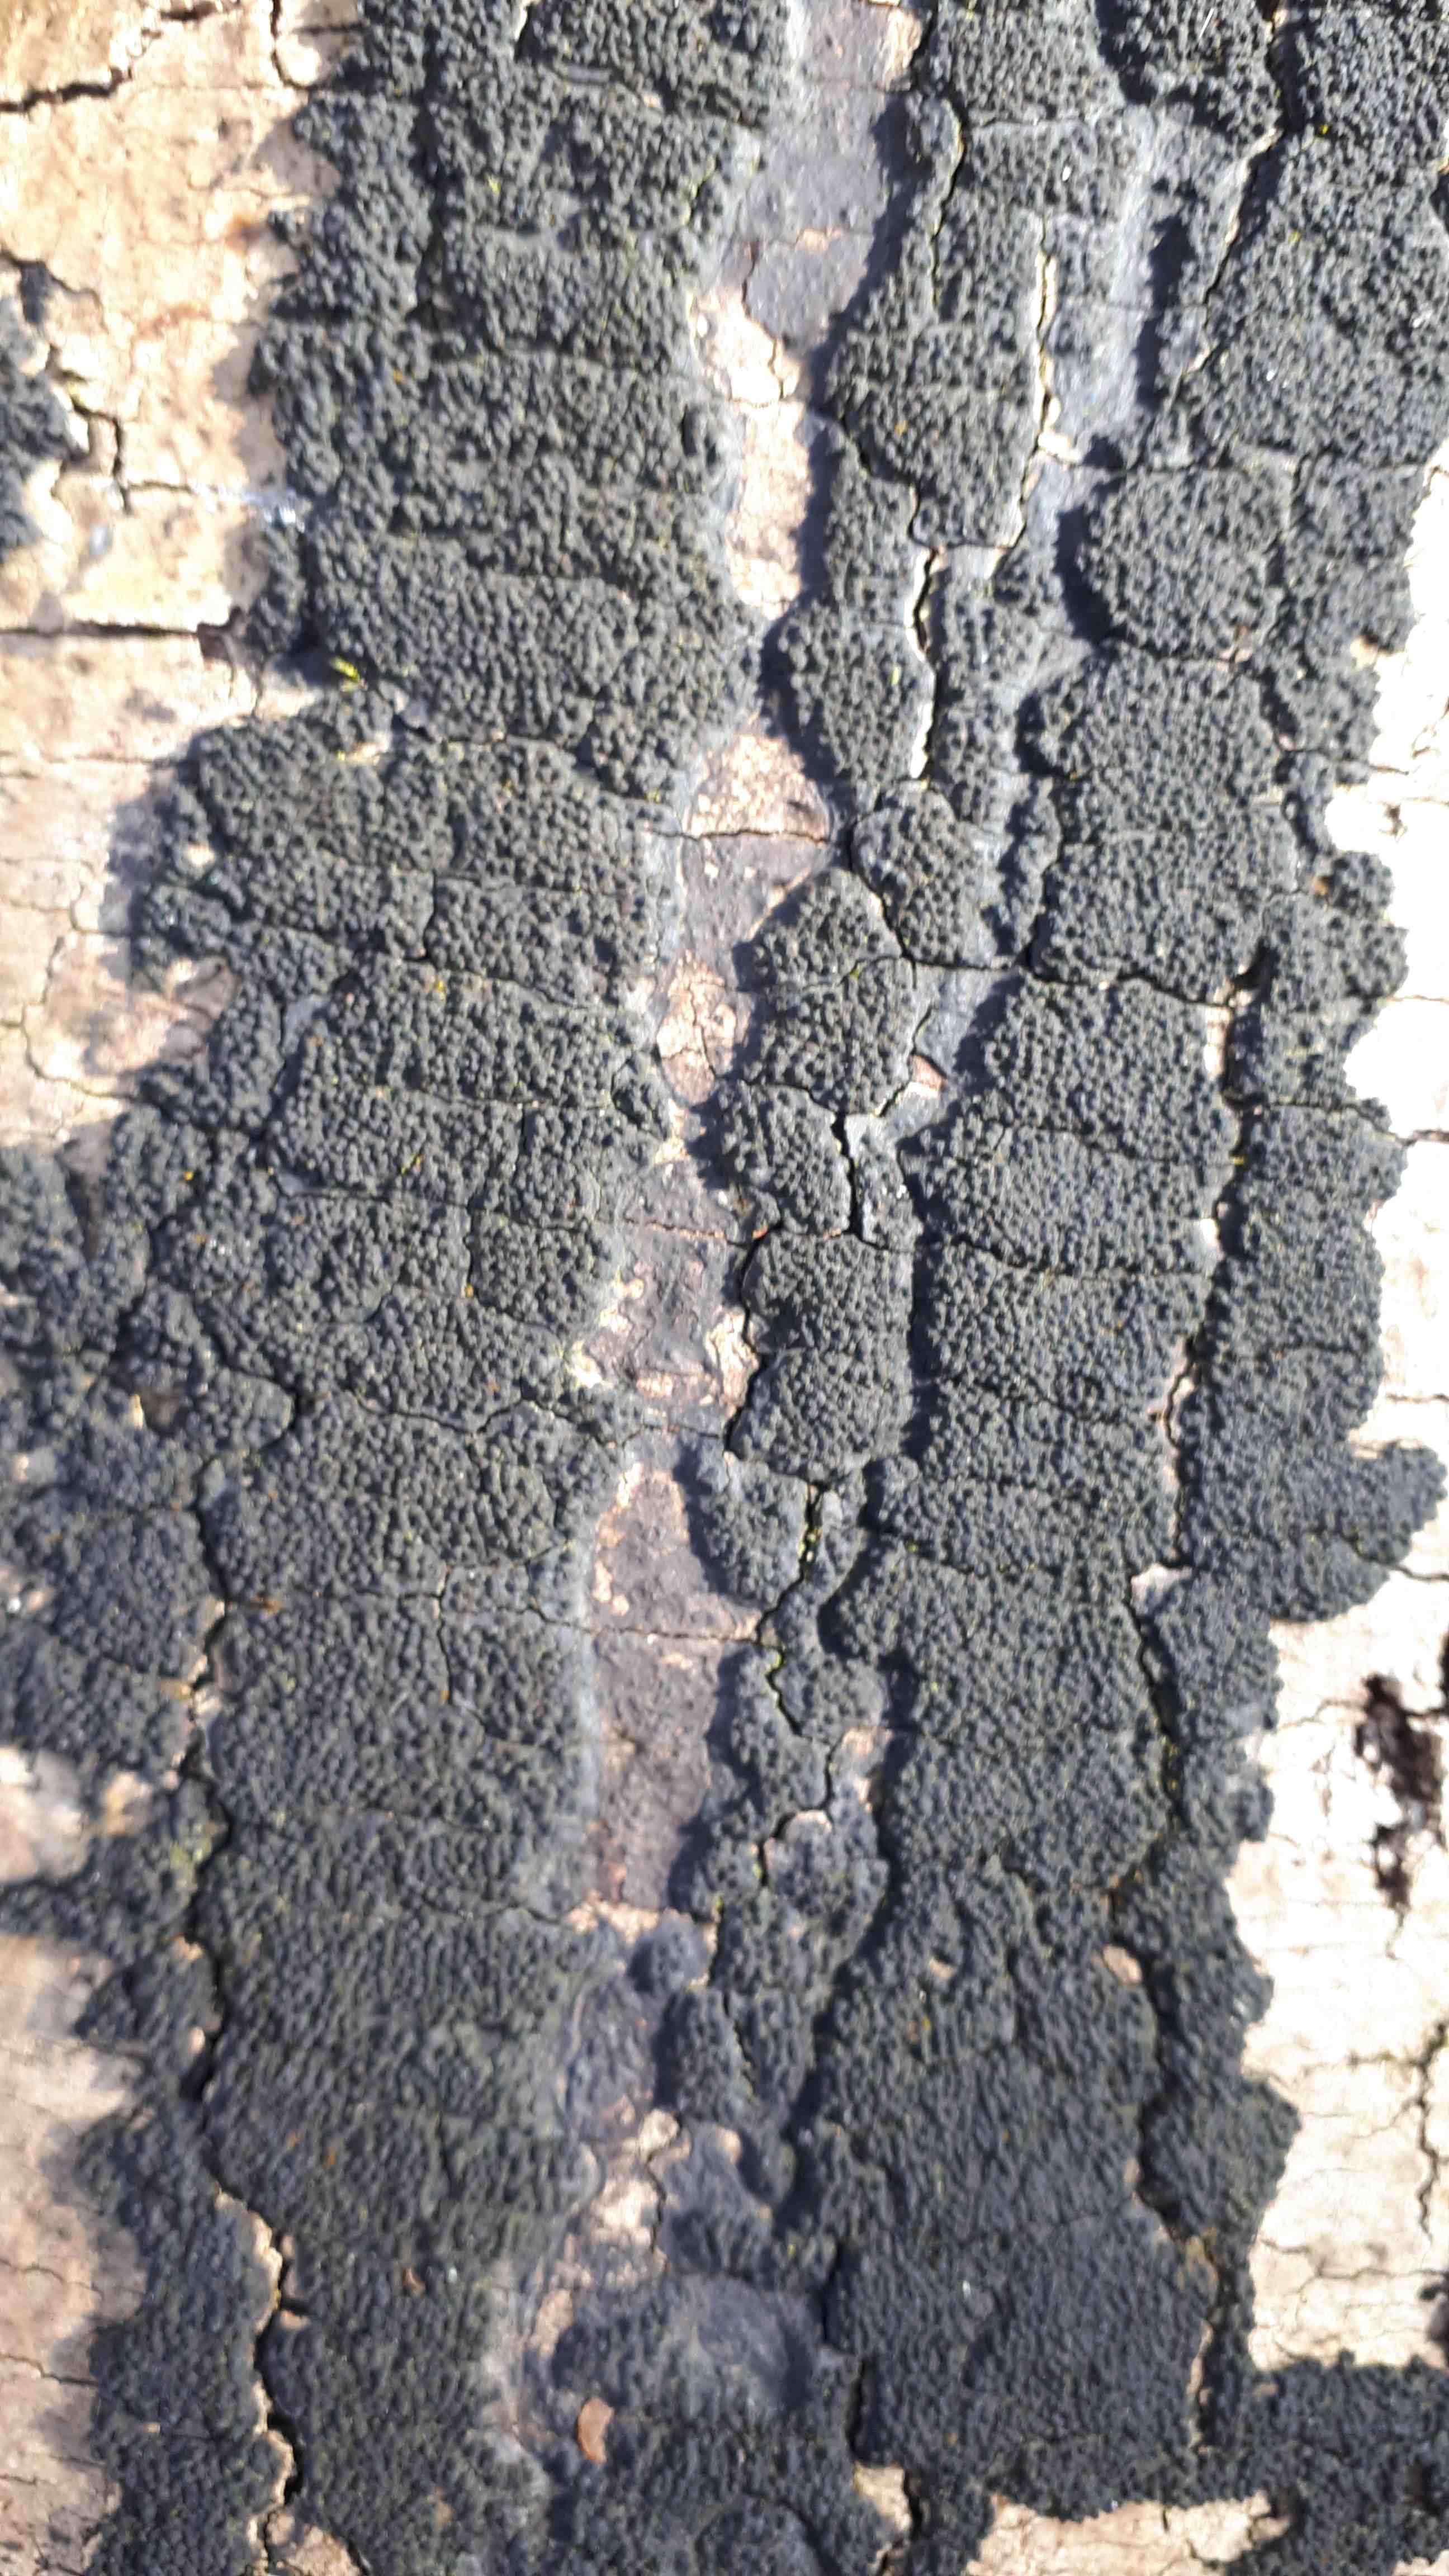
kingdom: Fungi
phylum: Ascomycota
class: Sordariomycetes
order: Xylariales
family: Diatrypaceae
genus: Eutypa
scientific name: Eutypa spinosa
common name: grov kulskorpe
